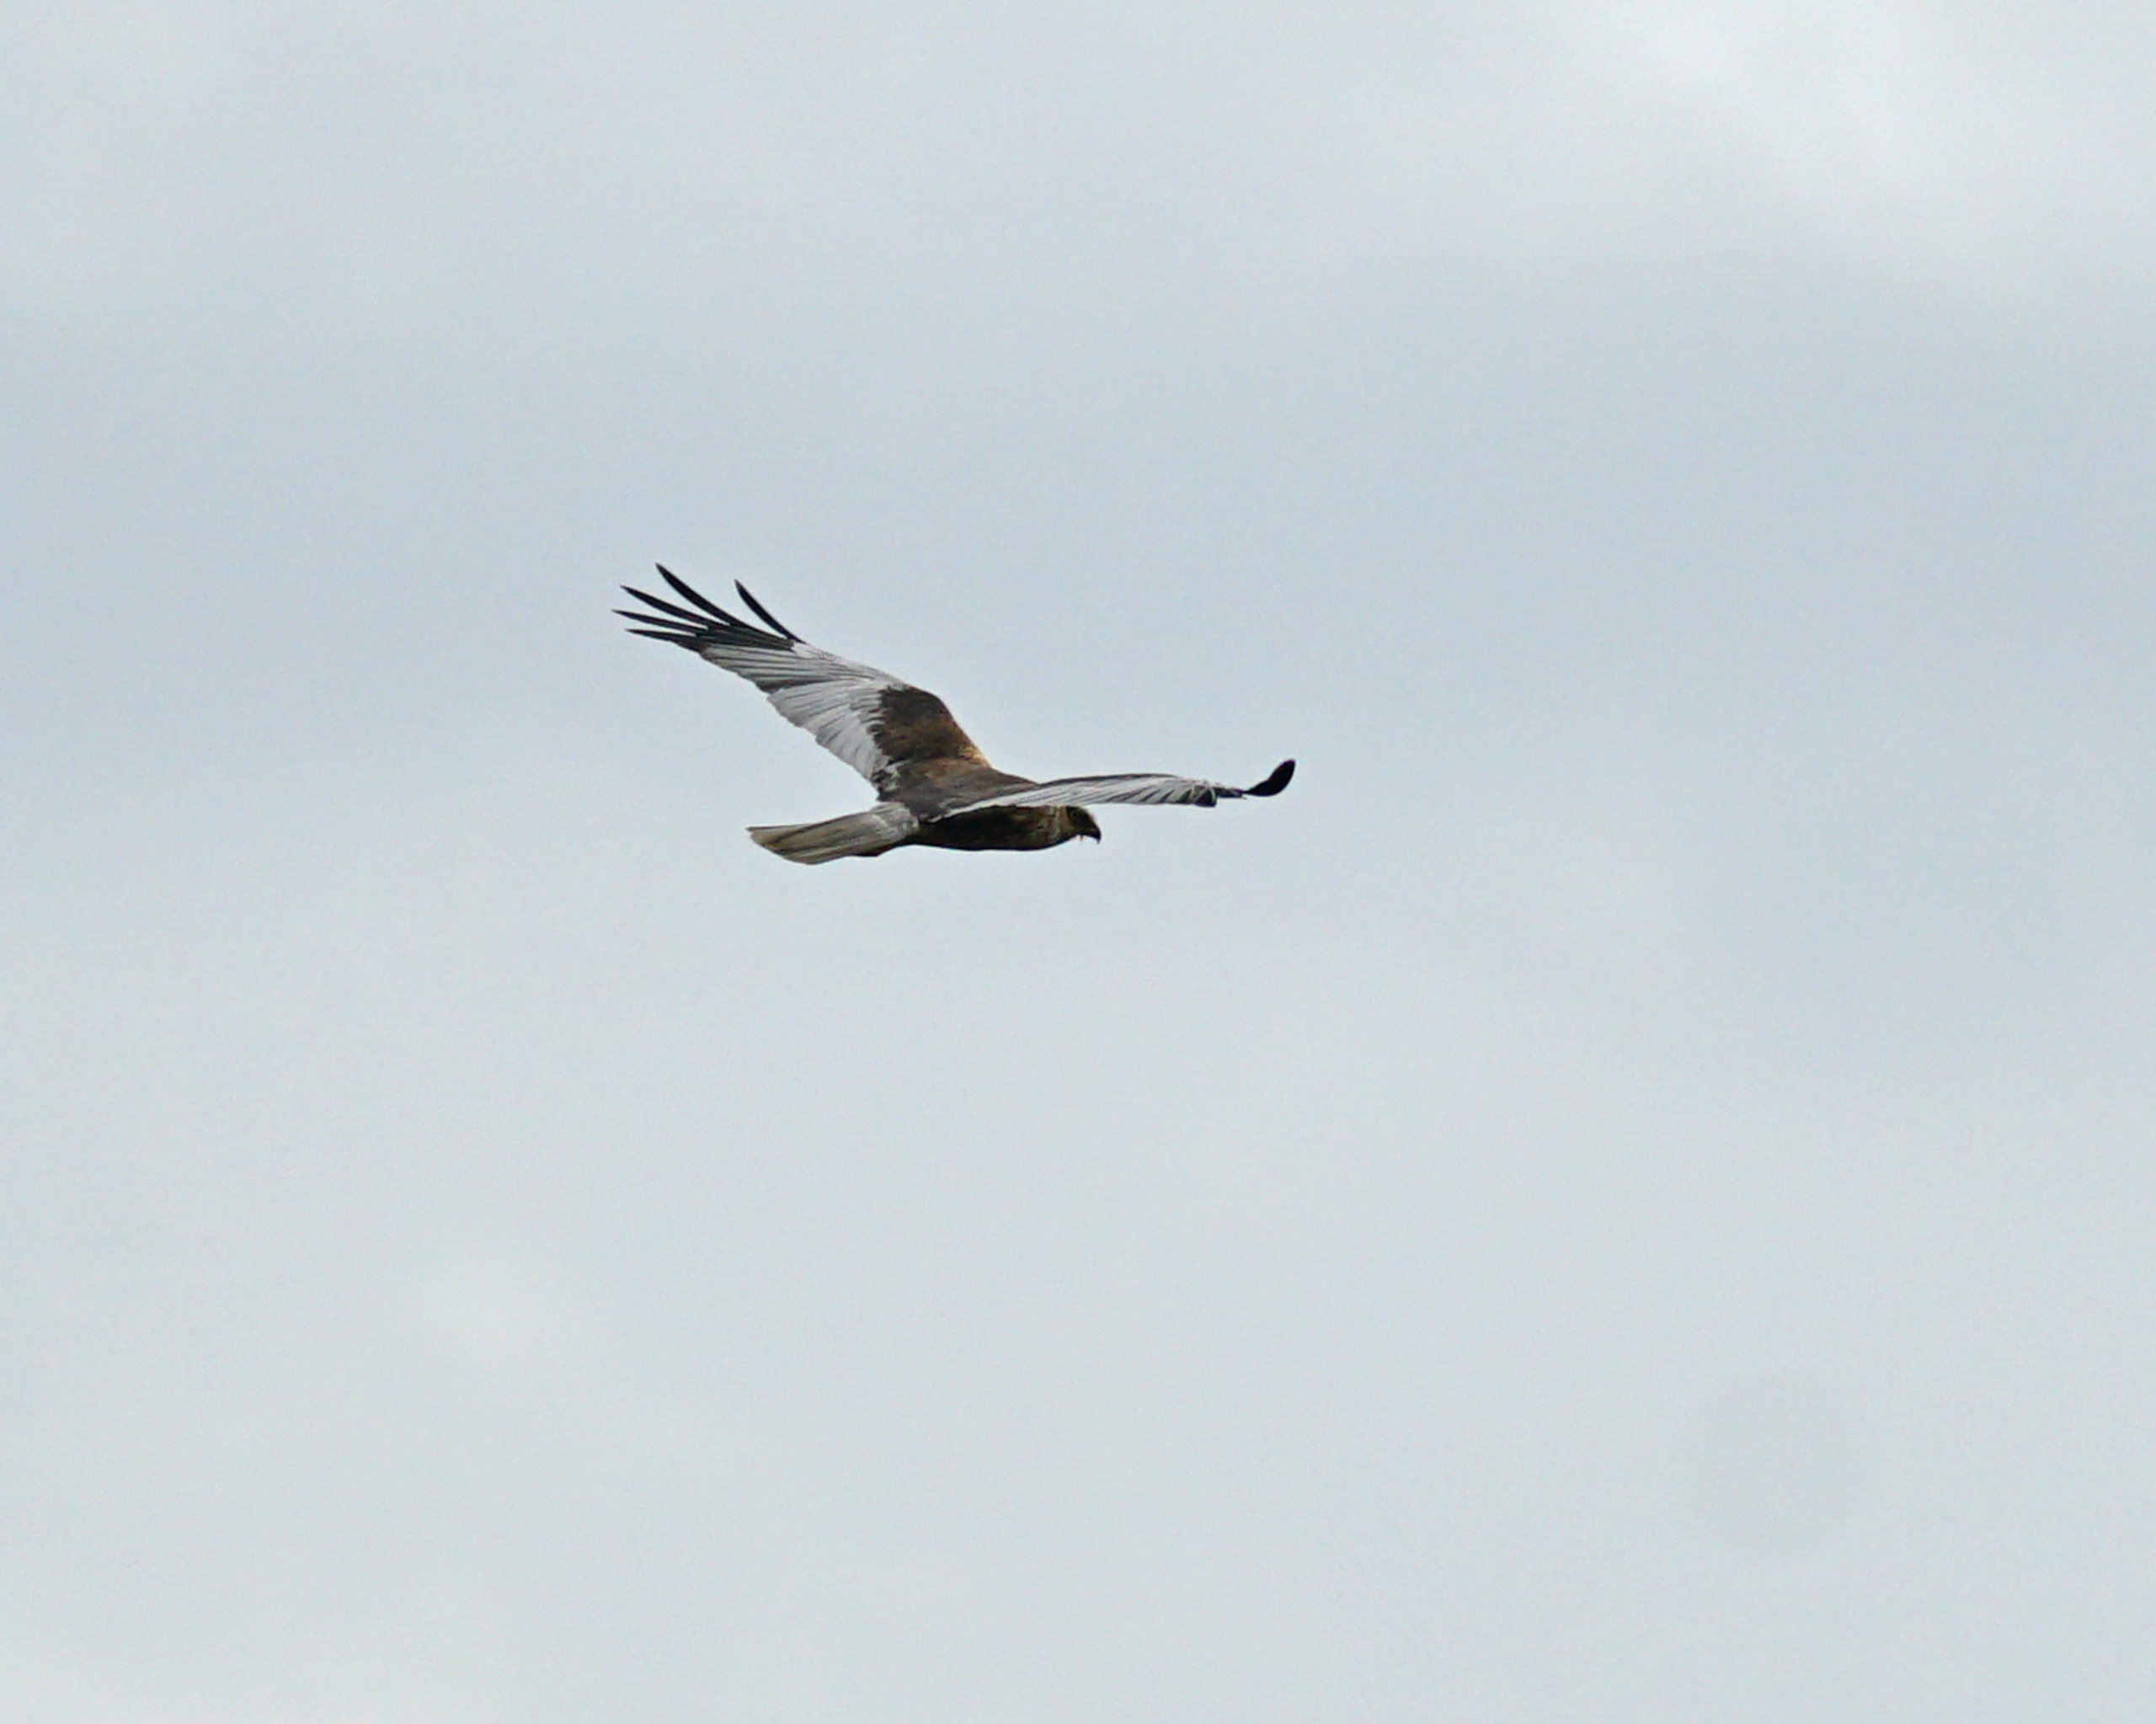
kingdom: Animalia
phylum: Chordata
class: Aves
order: Accipitriformes
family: Accipitridae
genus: Circus
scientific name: Circus aeruginosus
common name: Rørhøg
